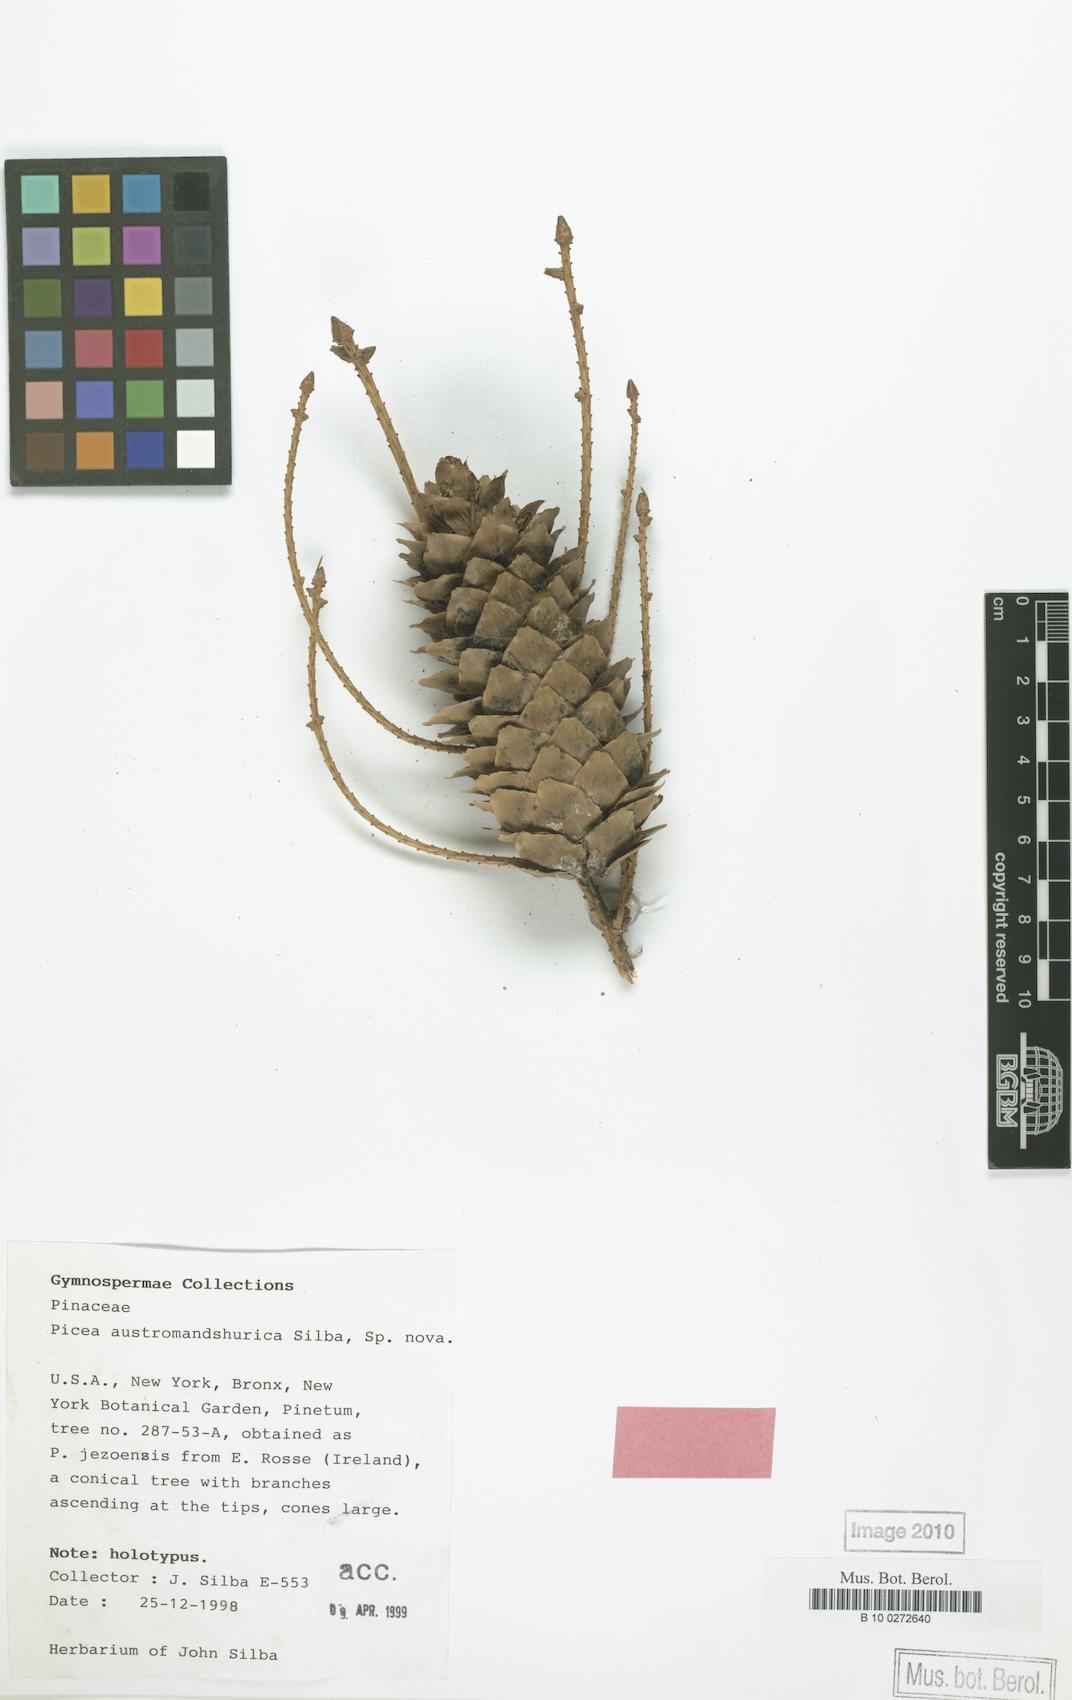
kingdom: Plantae
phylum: Tracheophyta
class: Pinopsida
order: Pinales
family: Pinaceae
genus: Picea
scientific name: Picea jezoensis
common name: Yeddo spruce
